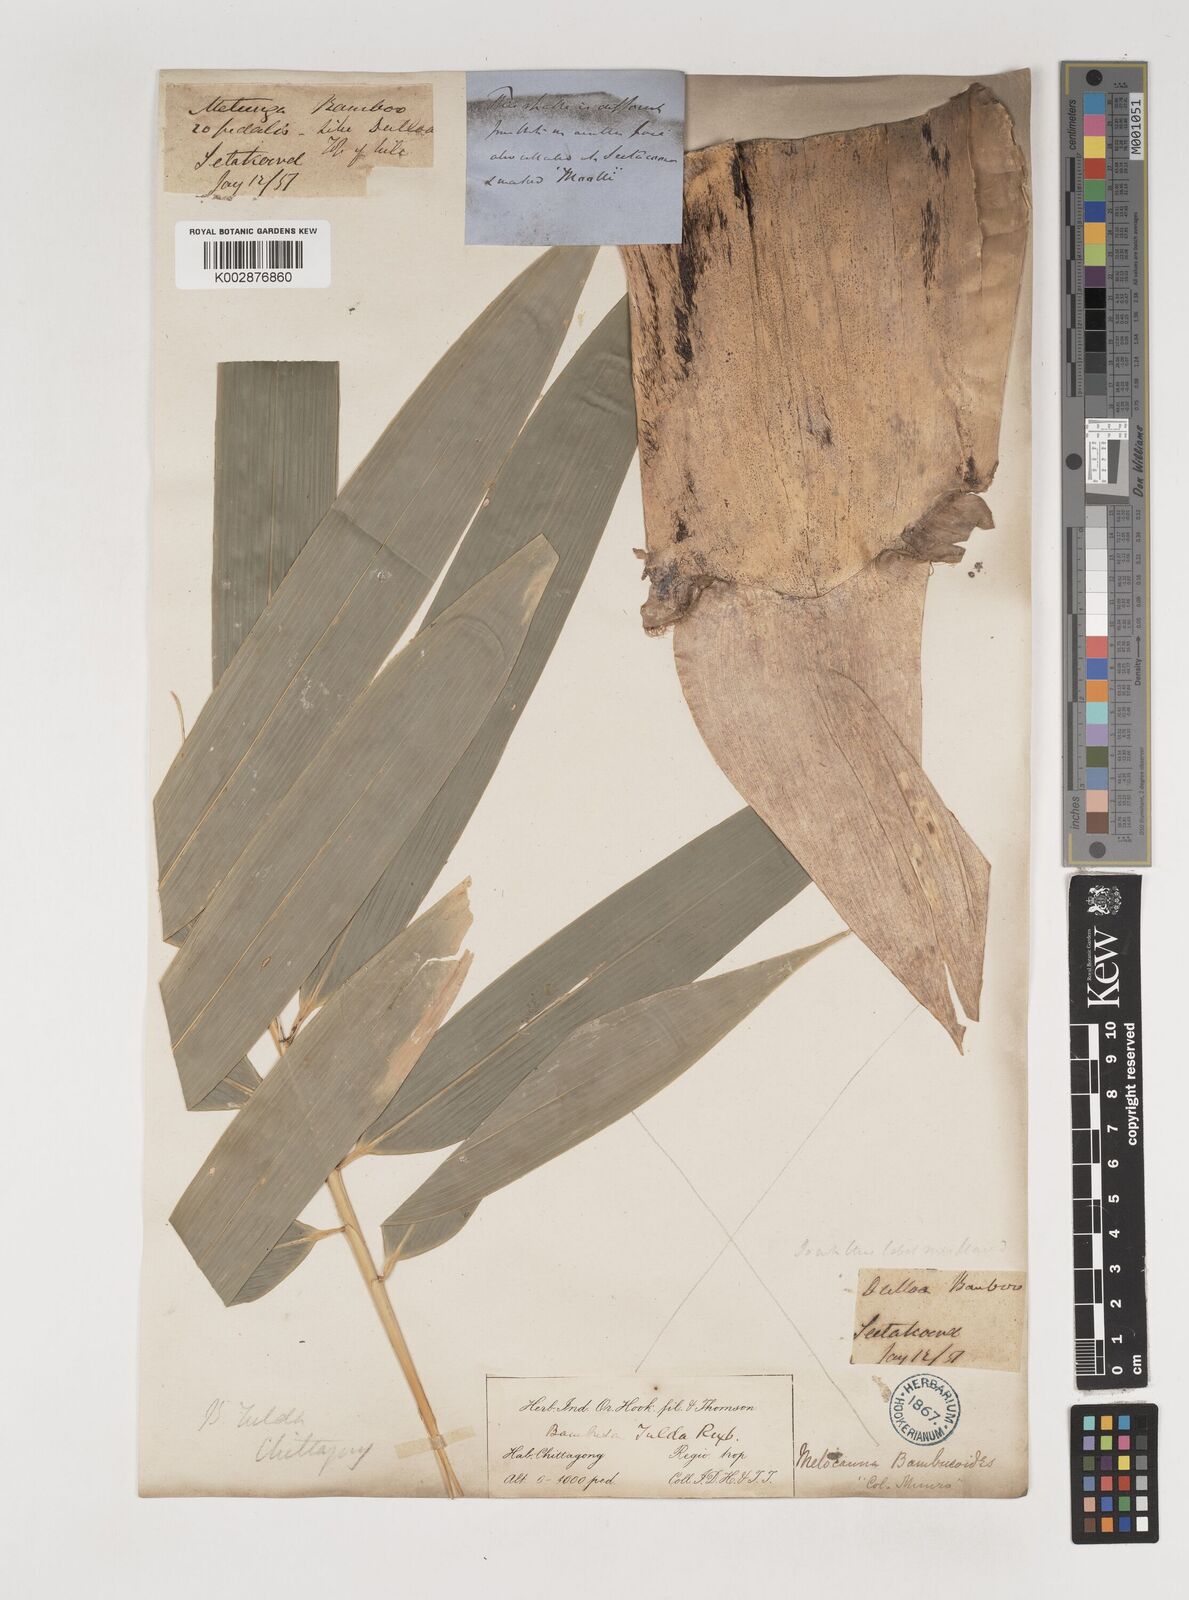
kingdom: Plantae
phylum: Tracheophyta
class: Liliopsida
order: Poales
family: Poaceae
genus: Bambusa
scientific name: Bambusa tuldoides
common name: Verdant bamboo
